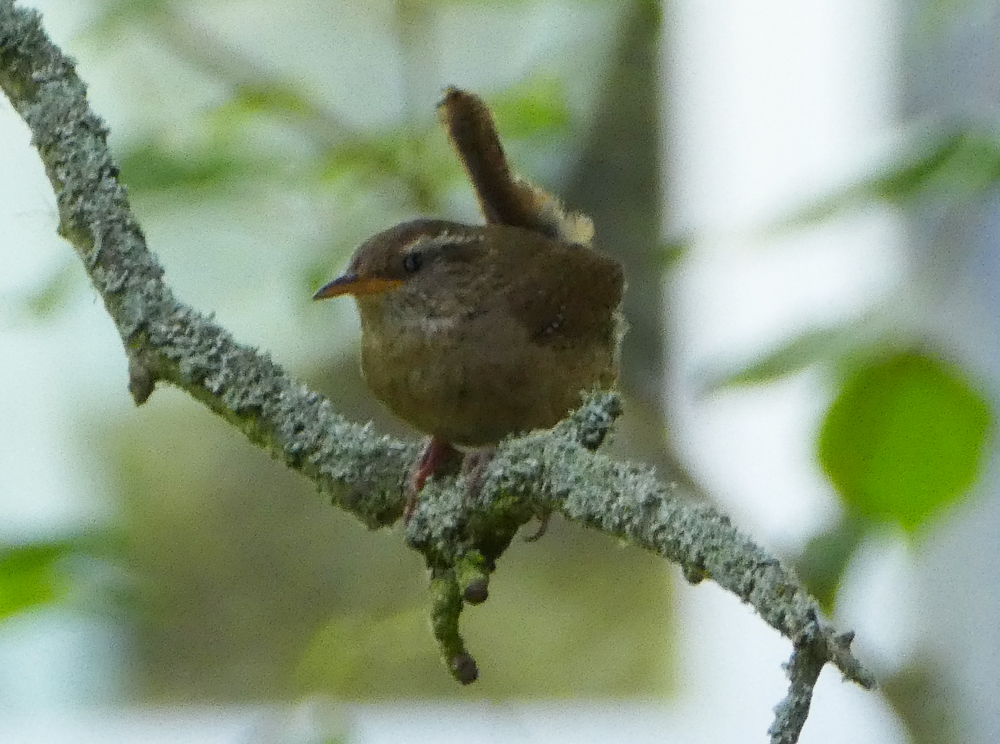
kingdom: Animalia
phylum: Chordata
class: Aves
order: Passeriformes
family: Troglodytidae
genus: Troglodytes
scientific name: Troglodytes troglodytes
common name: Eurasian wren
